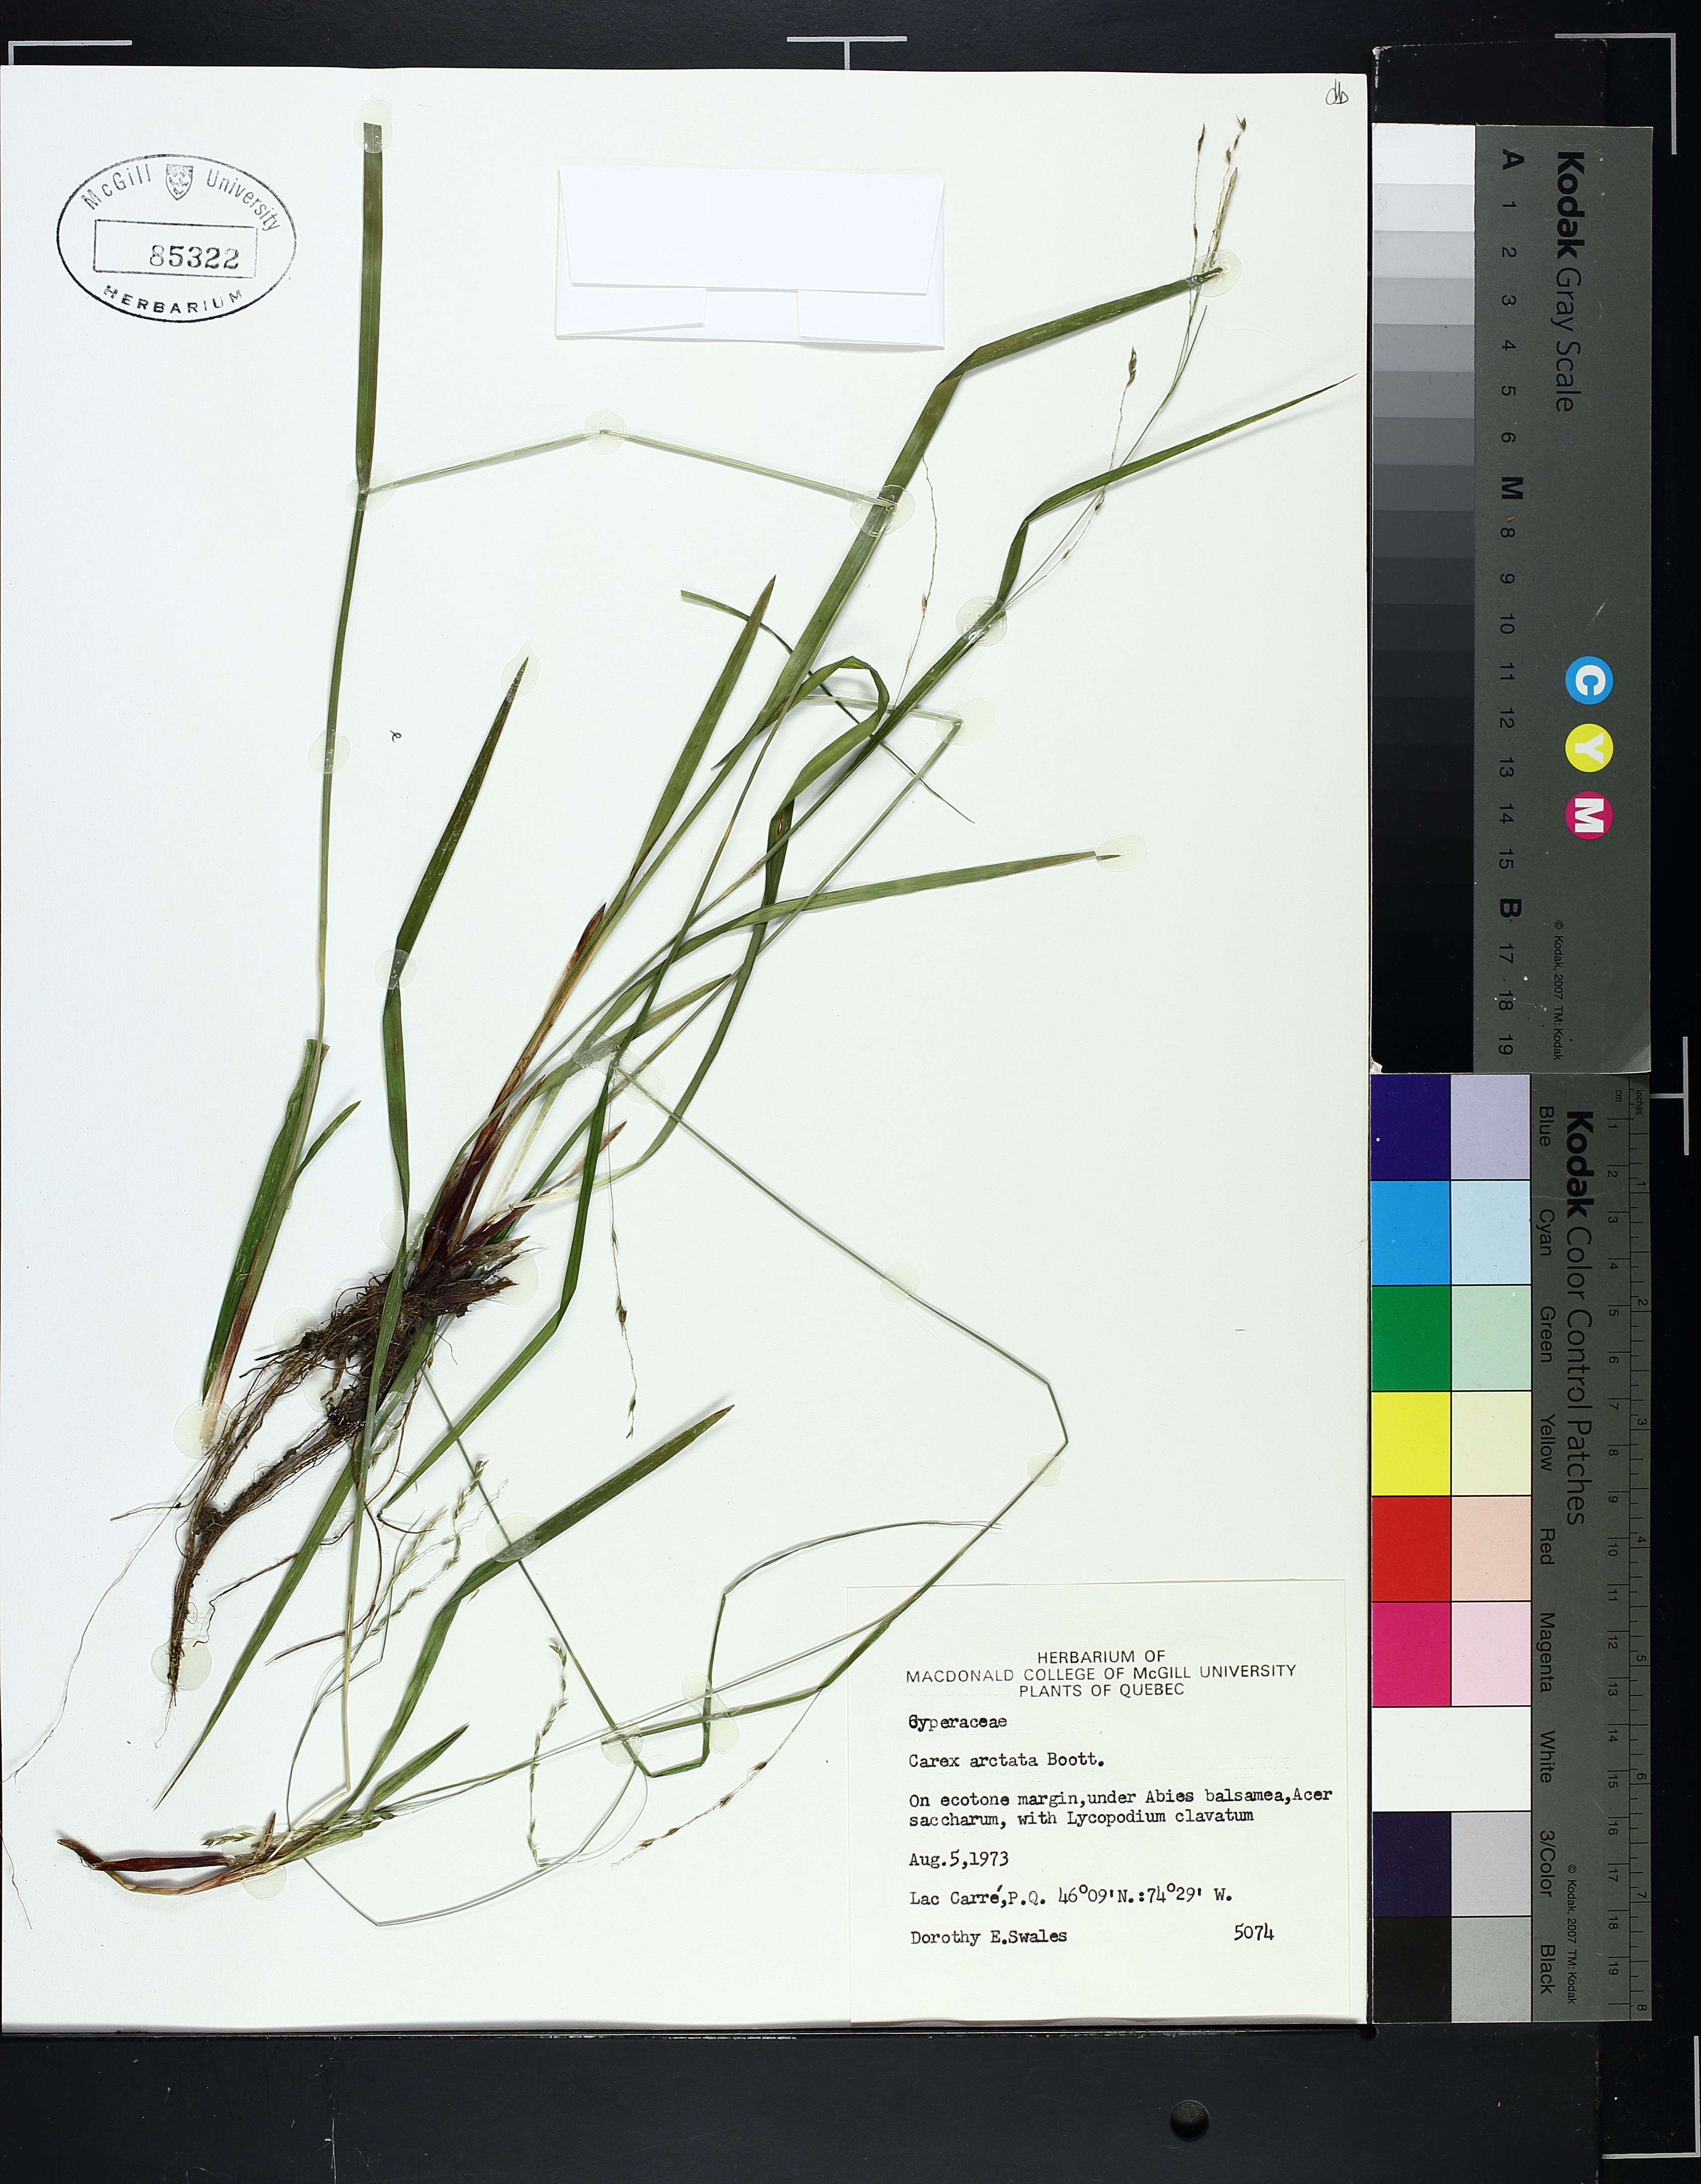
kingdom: Plantae
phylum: Tracheophyta
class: Liliopsida
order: Poales
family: Cyperaceae
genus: Carex
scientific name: Carex arctata
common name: Black sedge
